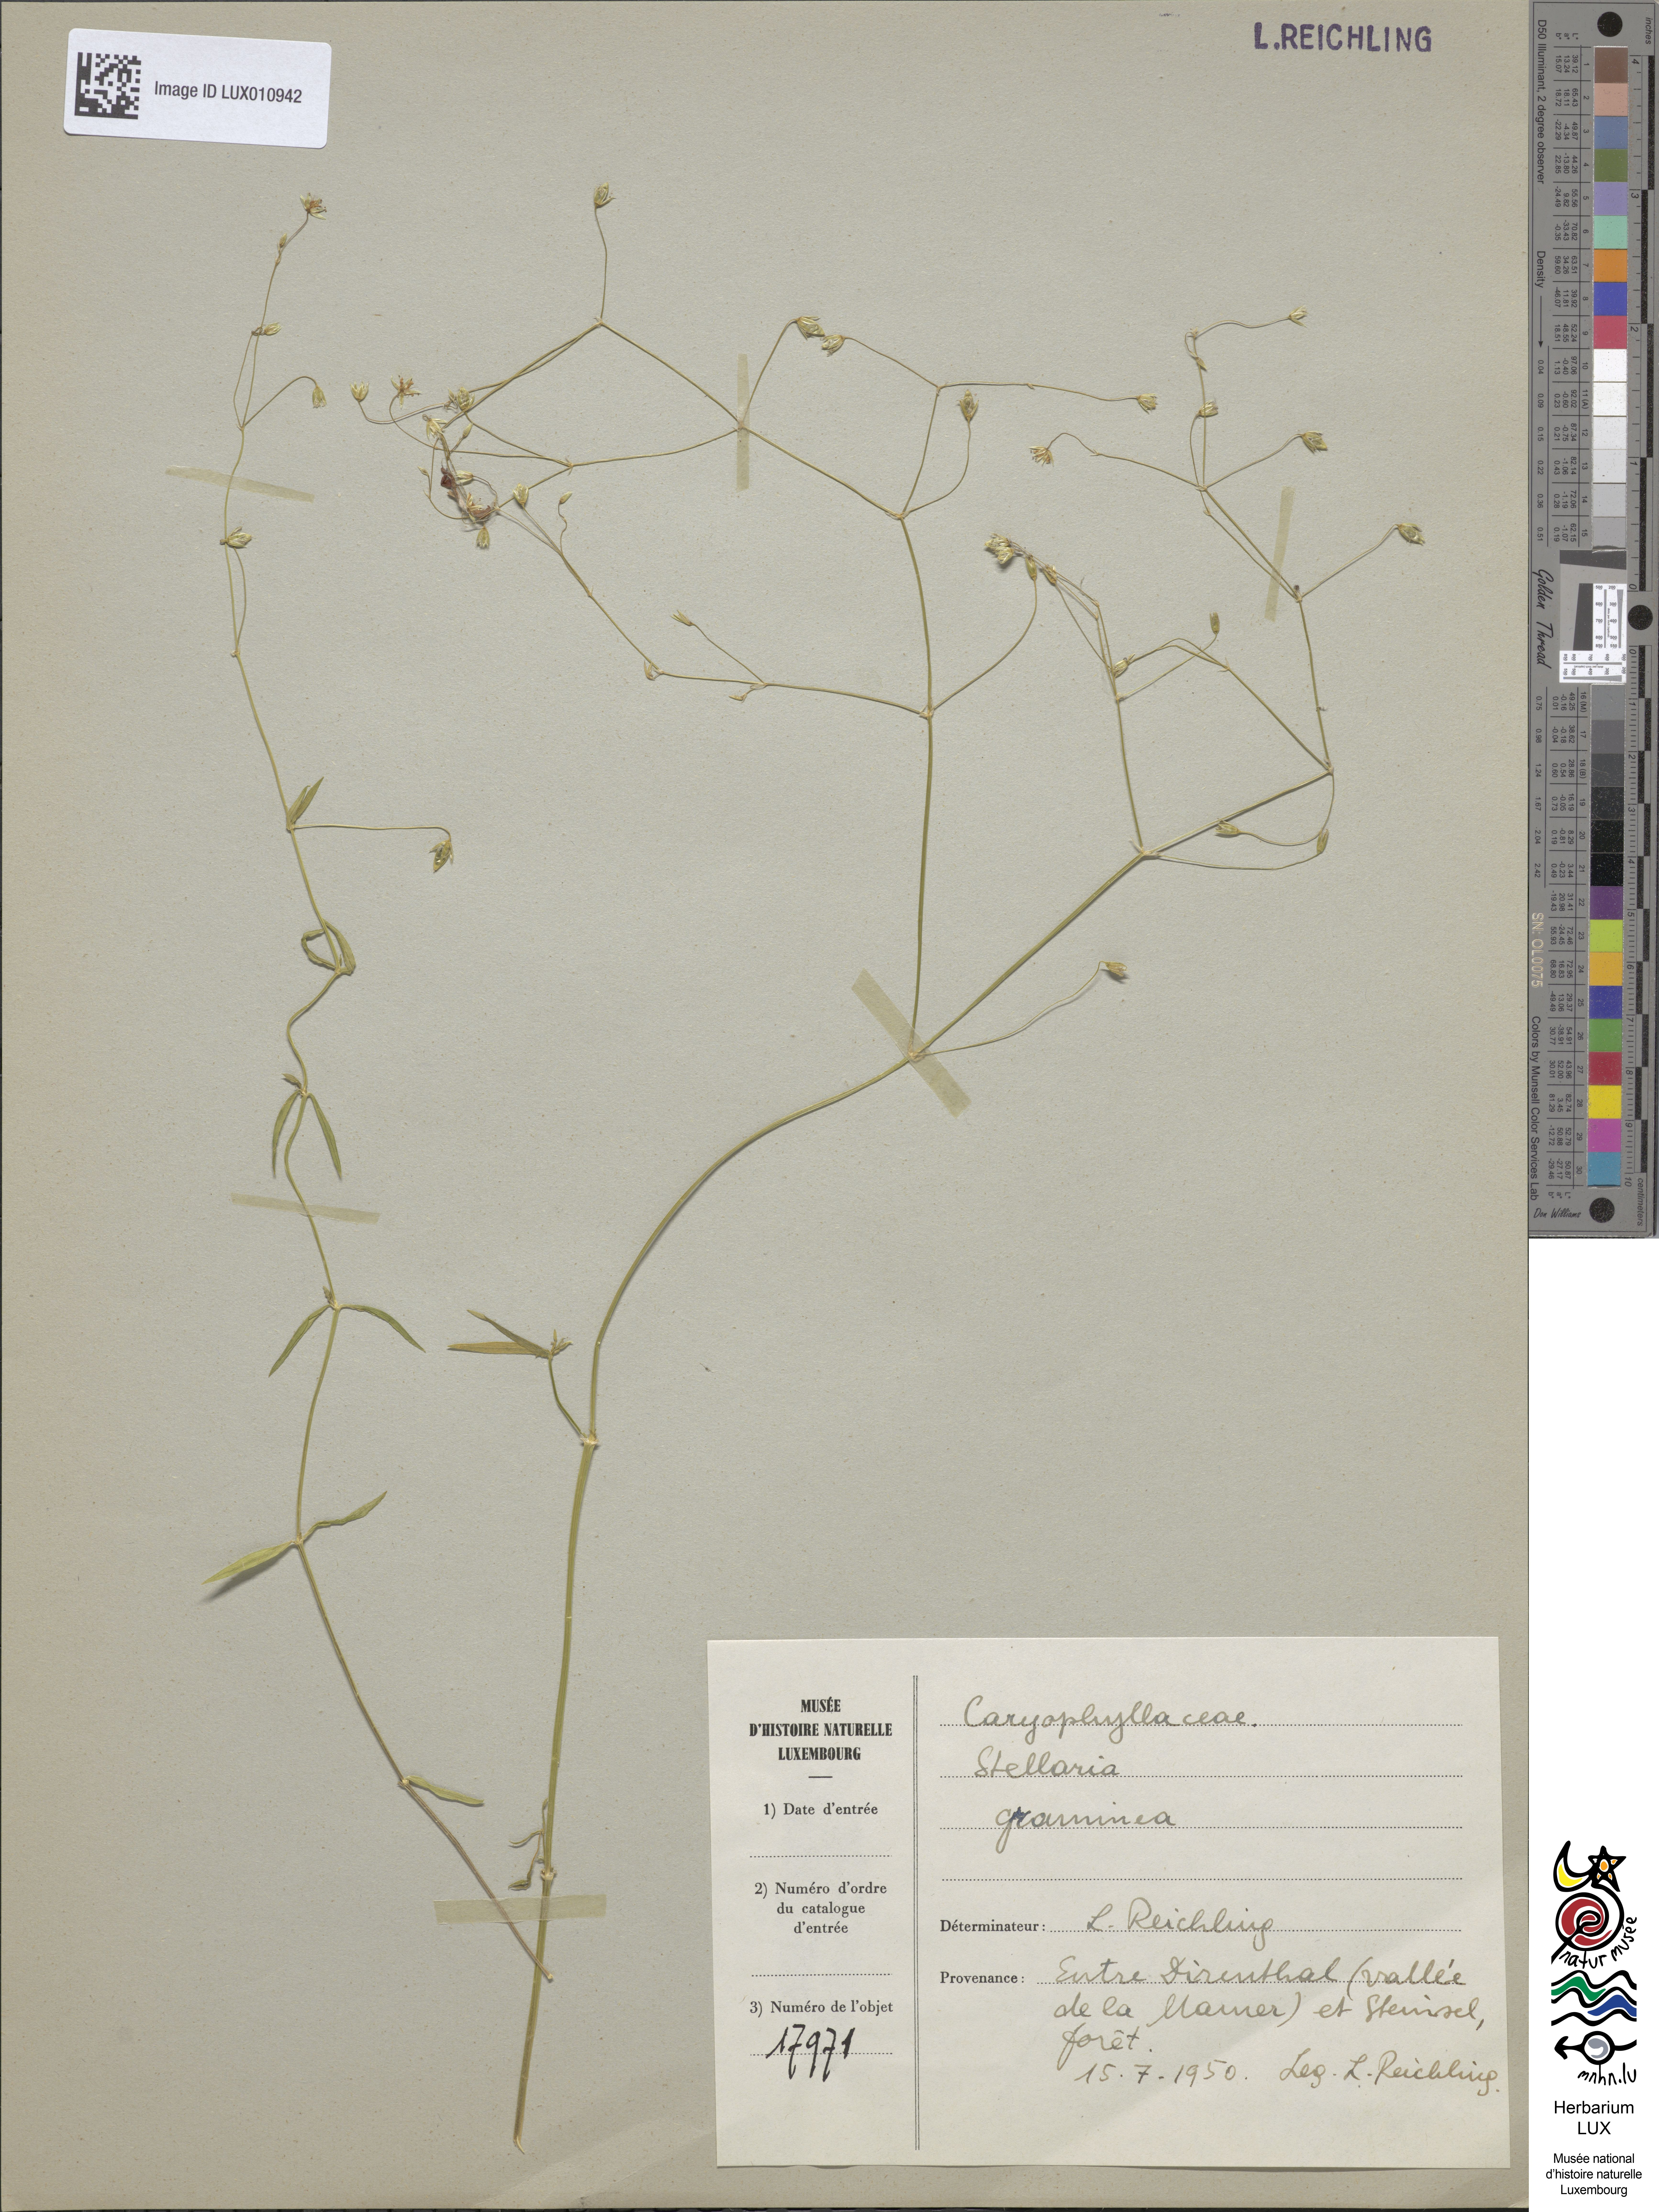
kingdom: Plantae
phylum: Tracheophyta
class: Magnoliopsida
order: Caryophyllales
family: Caryophyllaceae
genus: Stellaria
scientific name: Stellaria graminea
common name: Grass-like starwort
